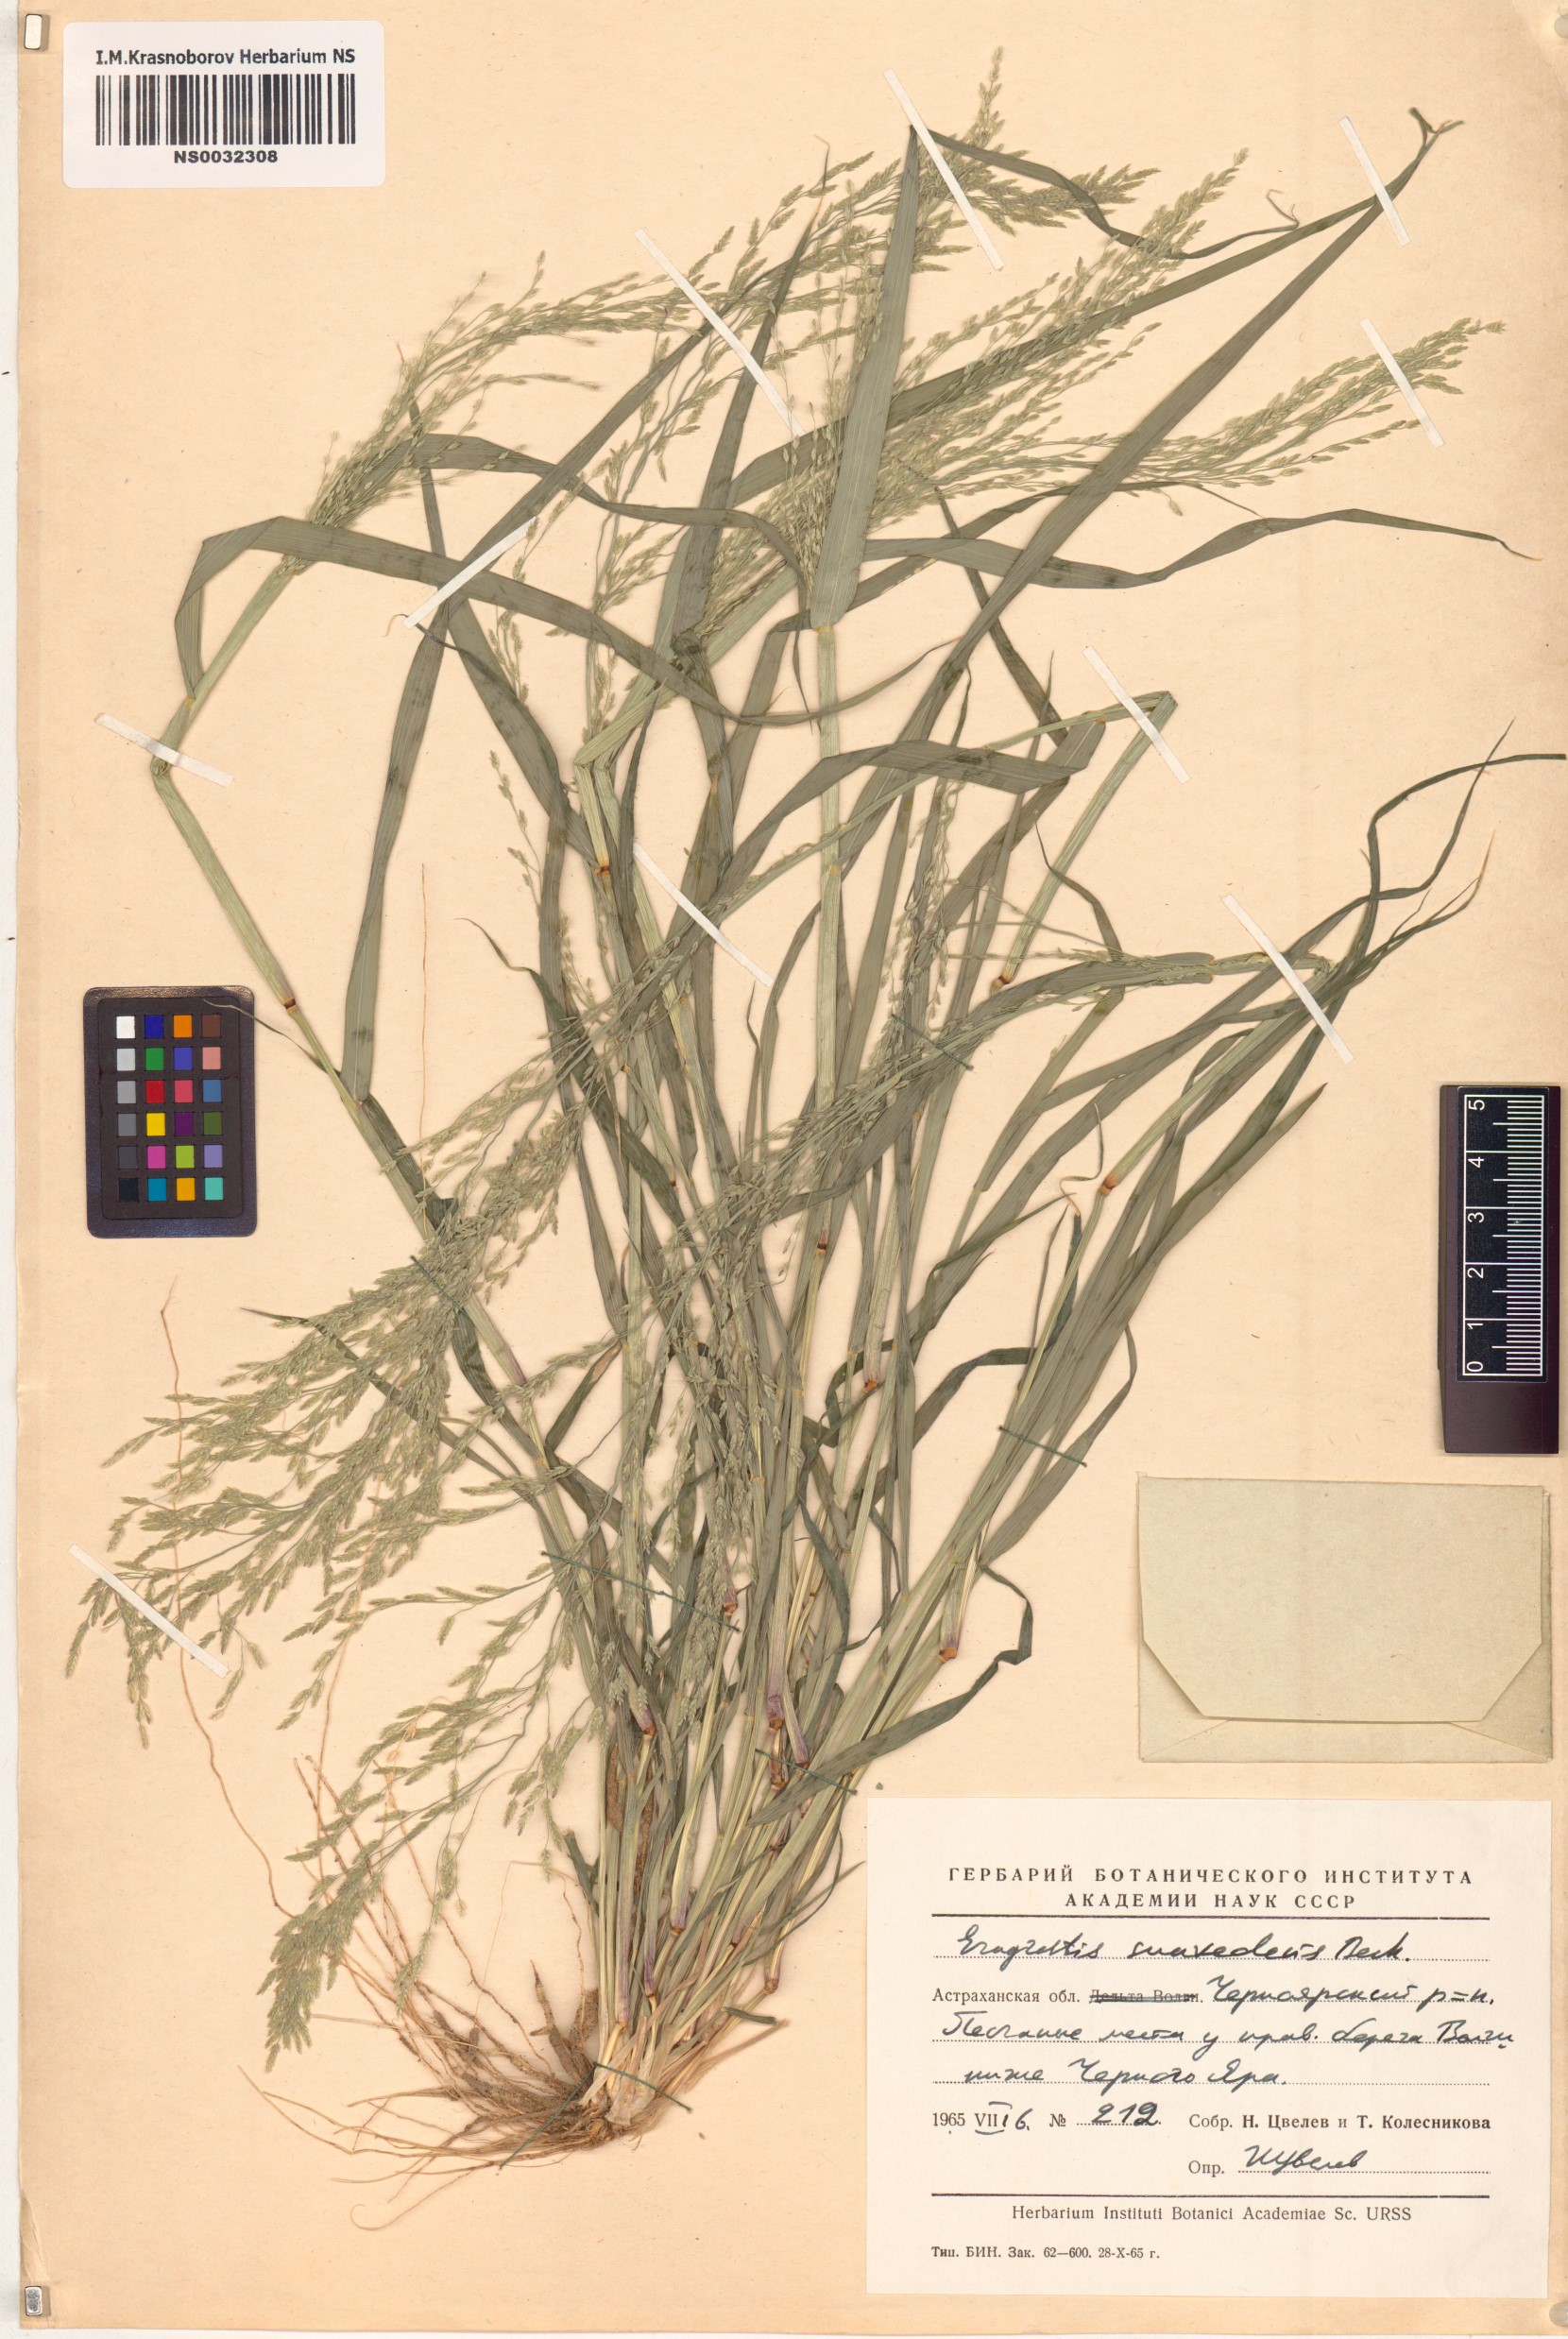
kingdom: Plantae
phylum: Tracheophyta
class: Liliopsida
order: Poales
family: Poaceae
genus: Eragrostis
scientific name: Eragrostis minor
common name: Small love-grass
